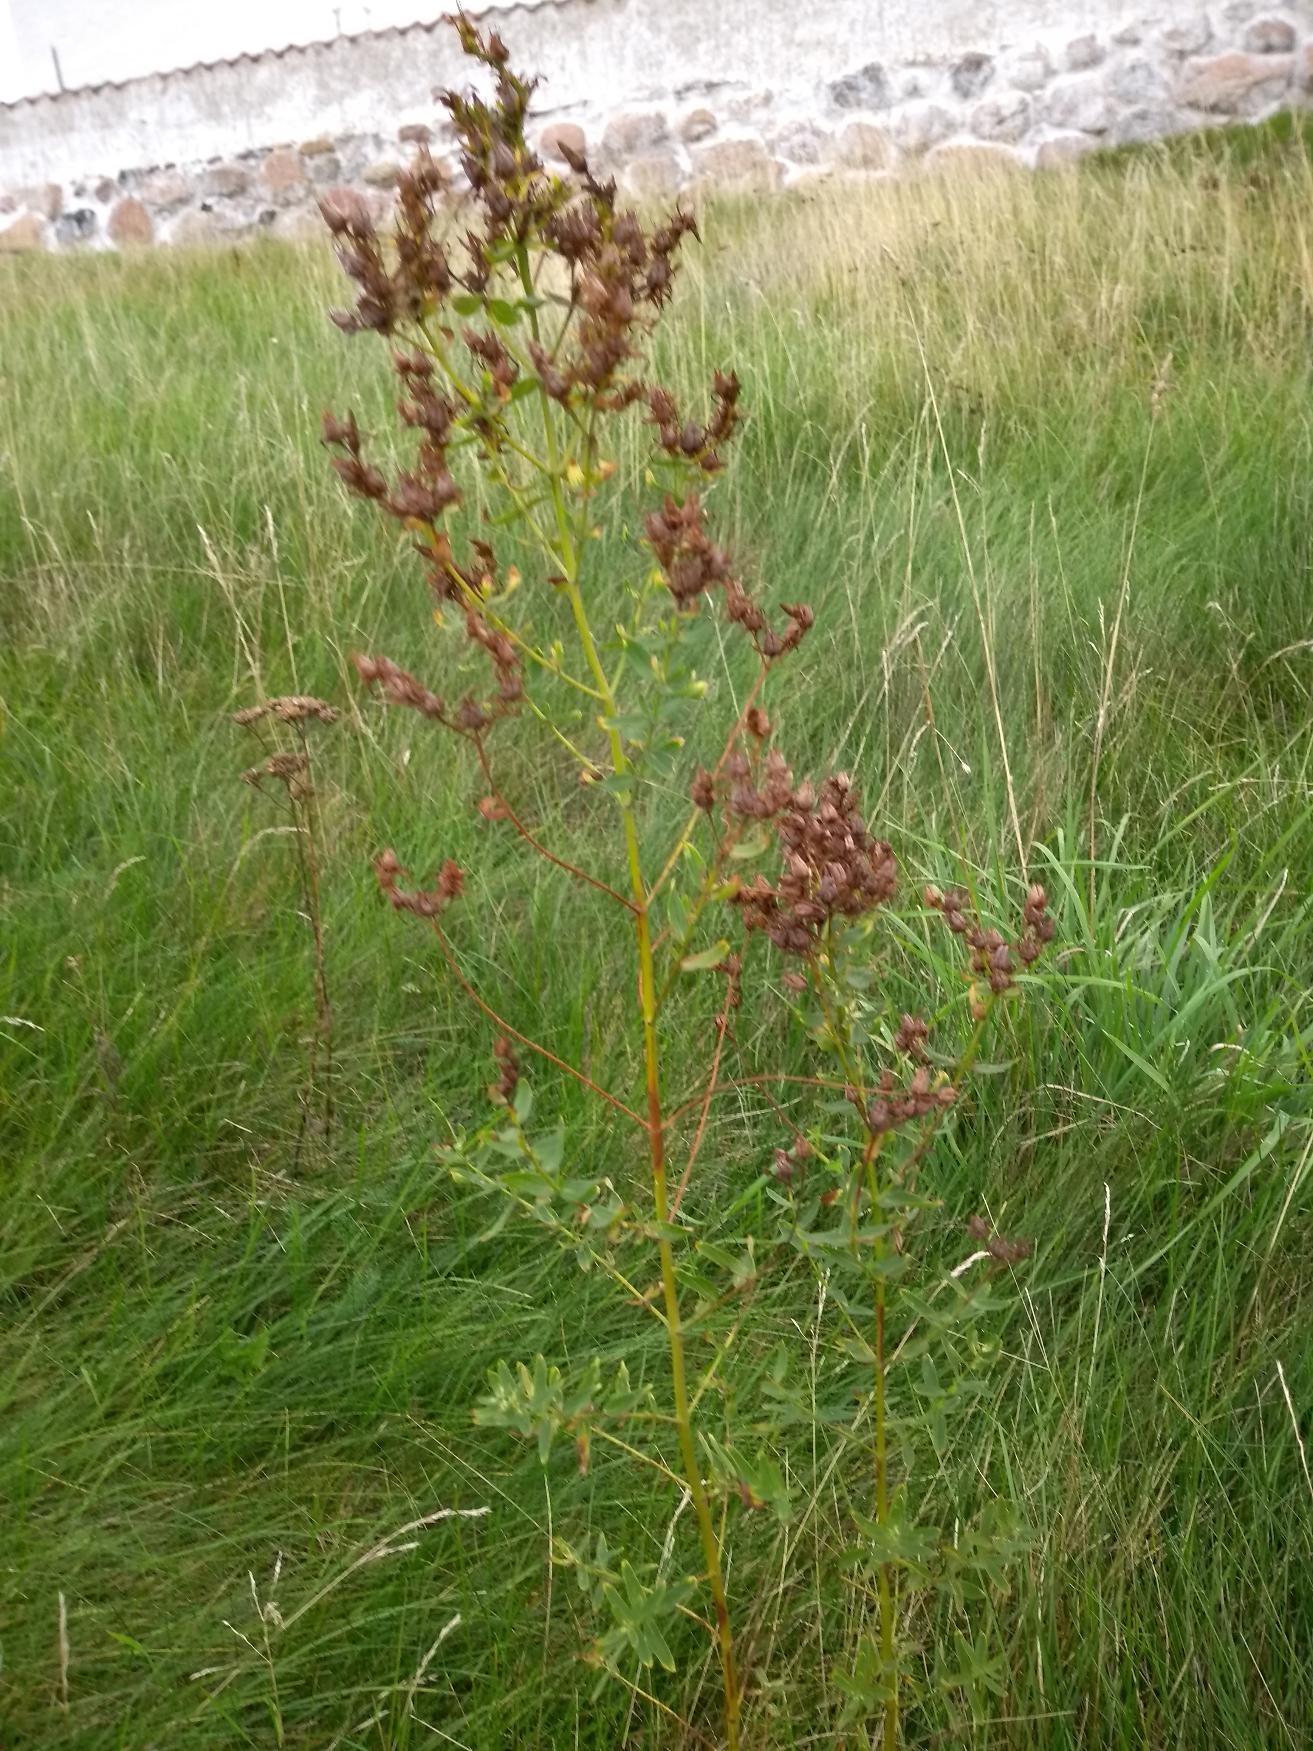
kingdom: Plantae
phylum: Tracheophyta
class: Magnoliopsida
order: Malpighiales
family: Hypericaceae
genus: Hypericum
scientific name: Hypericum perforatum
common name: Prikbladet perikon
